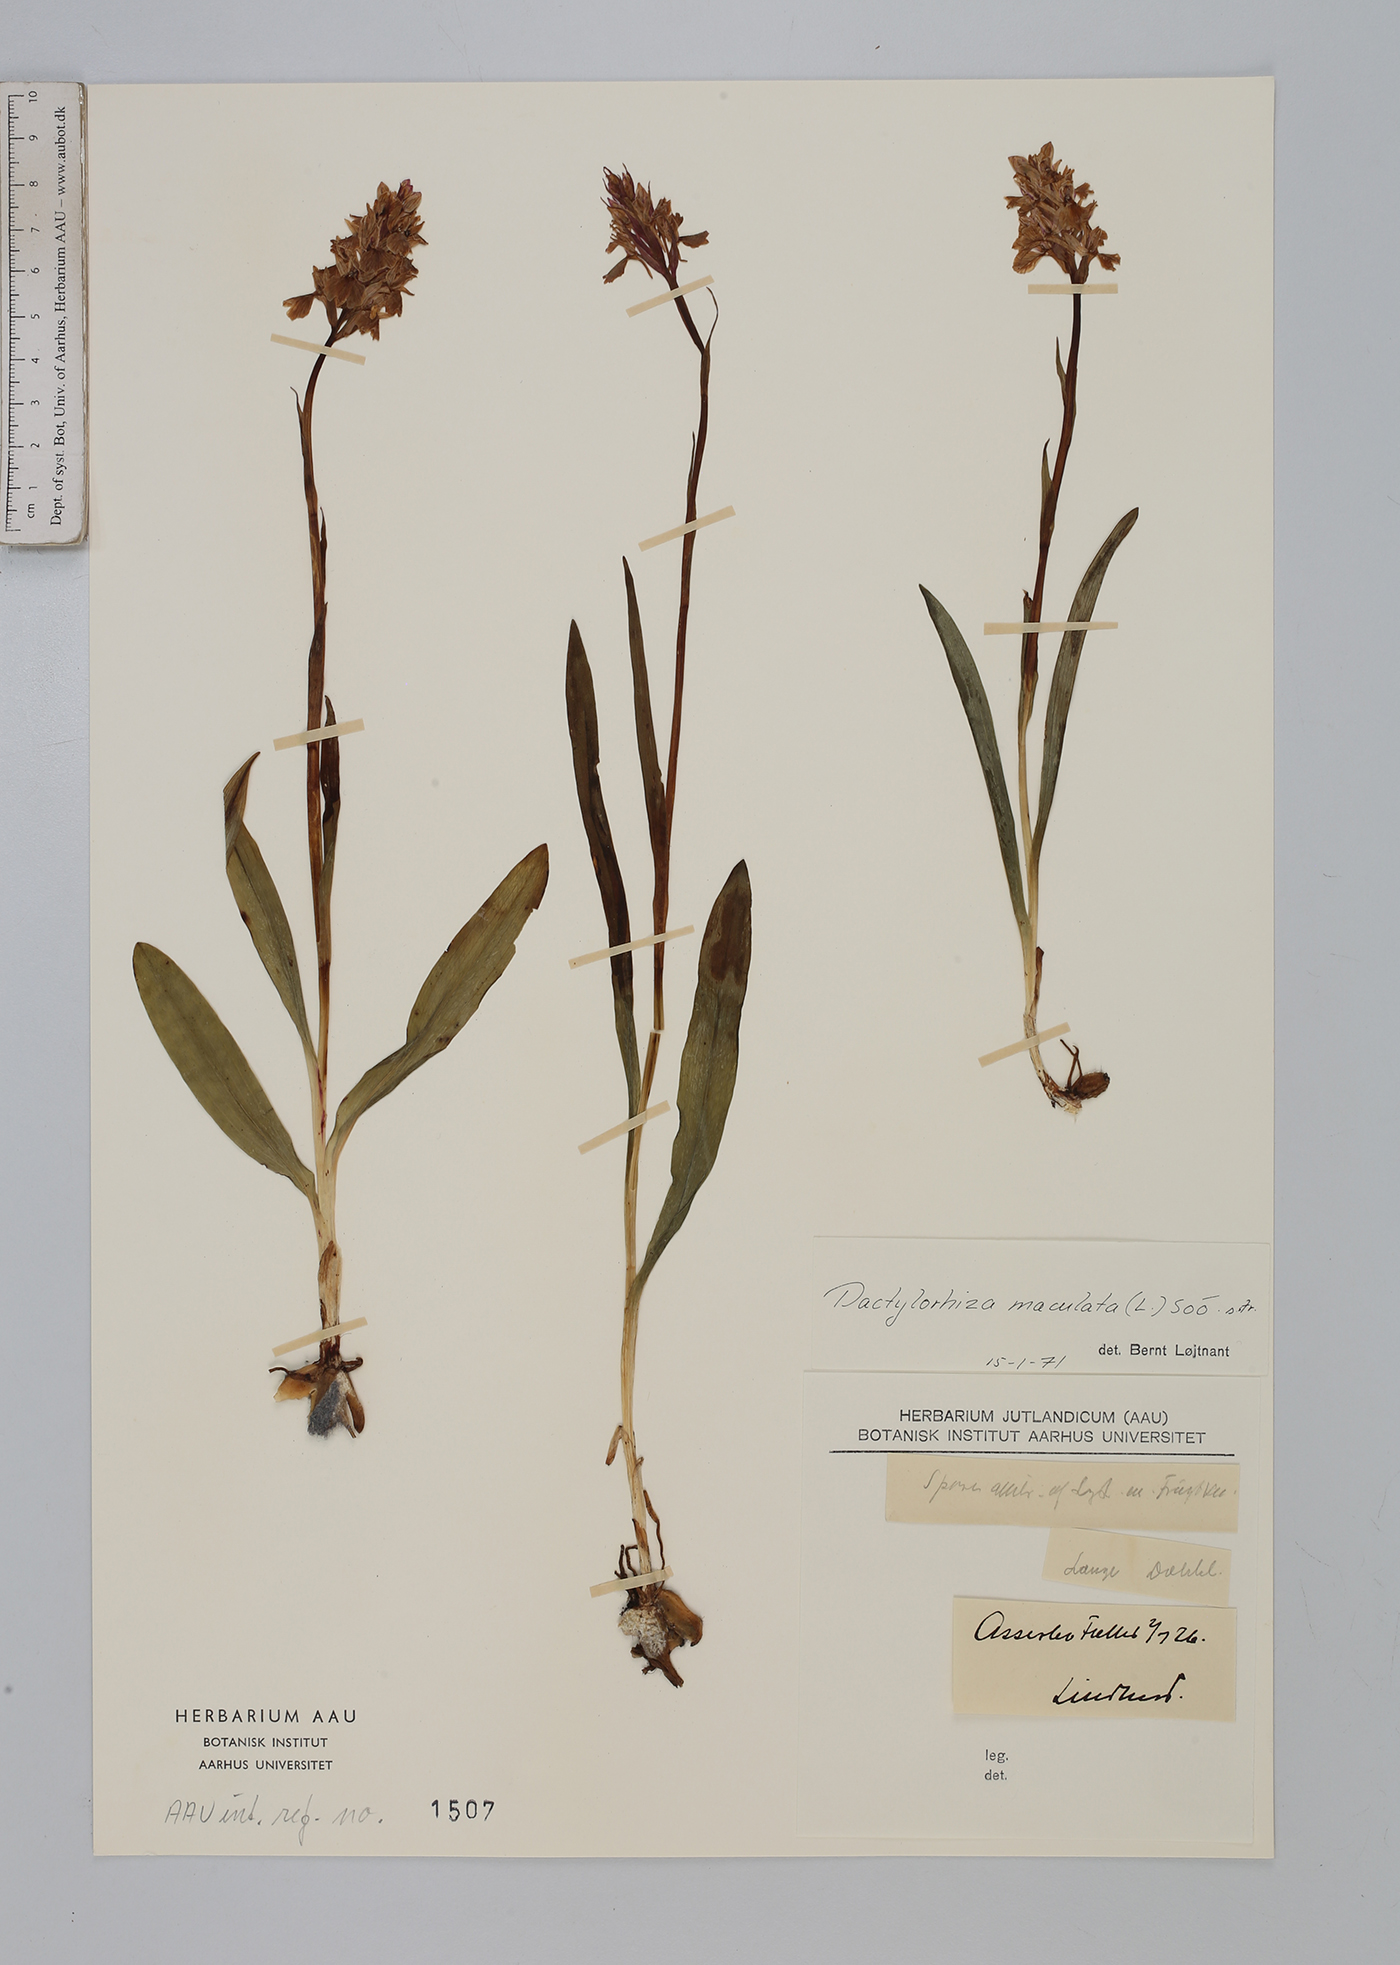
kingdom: Plantae
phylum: Tracheophyta
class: Liliopsida
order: Asparagales
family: Orchidaceae
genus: Dactylorhiza
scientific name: Dactylorhiza maculata
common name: Heath spotted-orchid
